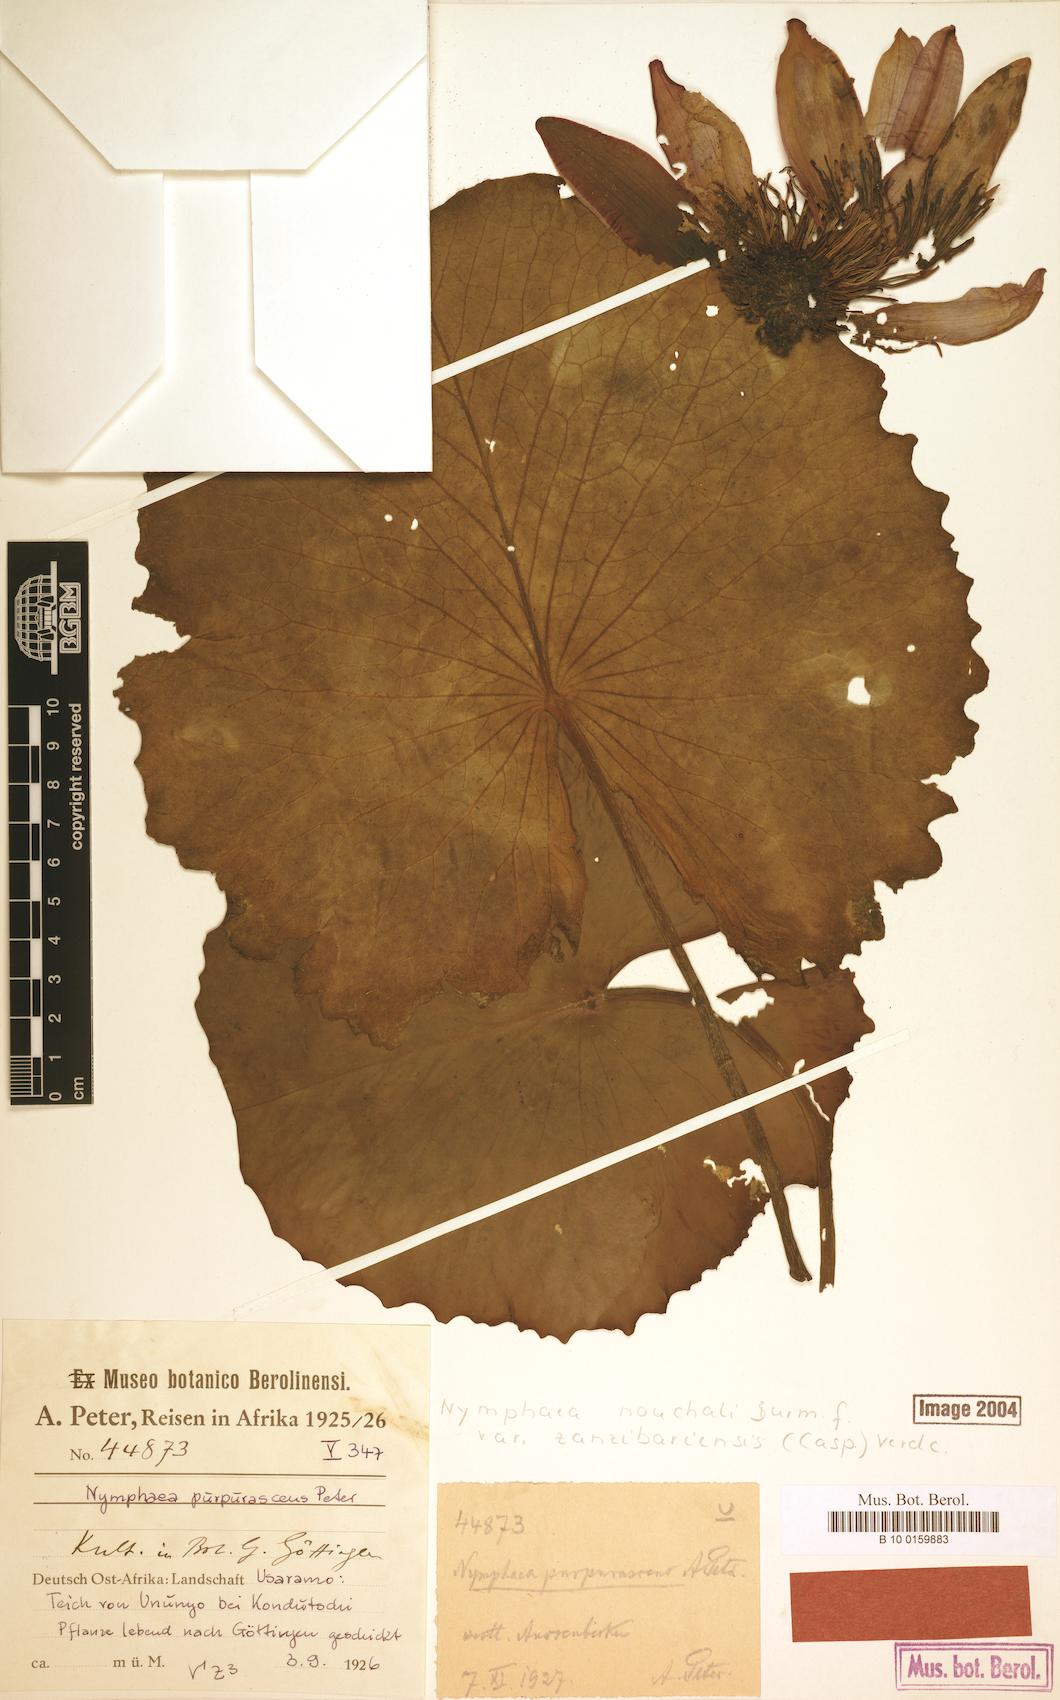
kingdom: Plantae
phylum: Tracheophyta
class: Magnoliopsida
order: Nymphaeales
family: Nymphaeaceae
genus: Nymphaea
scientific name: Nymphaea nouchali
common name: Blue lotus
